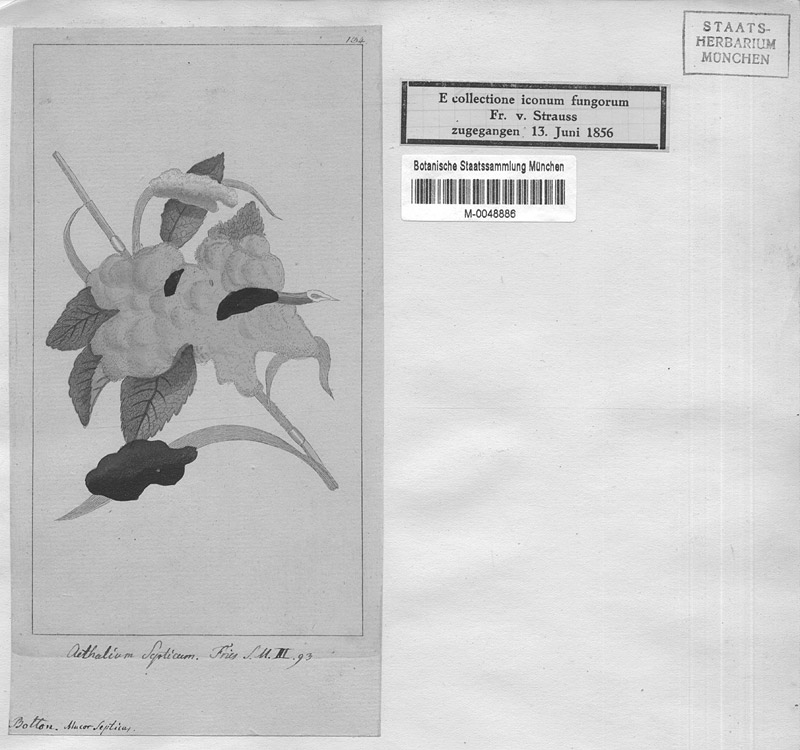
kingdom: Protozoa
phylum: Mycetozoa
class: Myxomycetes
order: Physarales
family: Physaraceae
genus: Fuligo
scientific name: Fuligo septica
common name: Dog vomit slime mold
